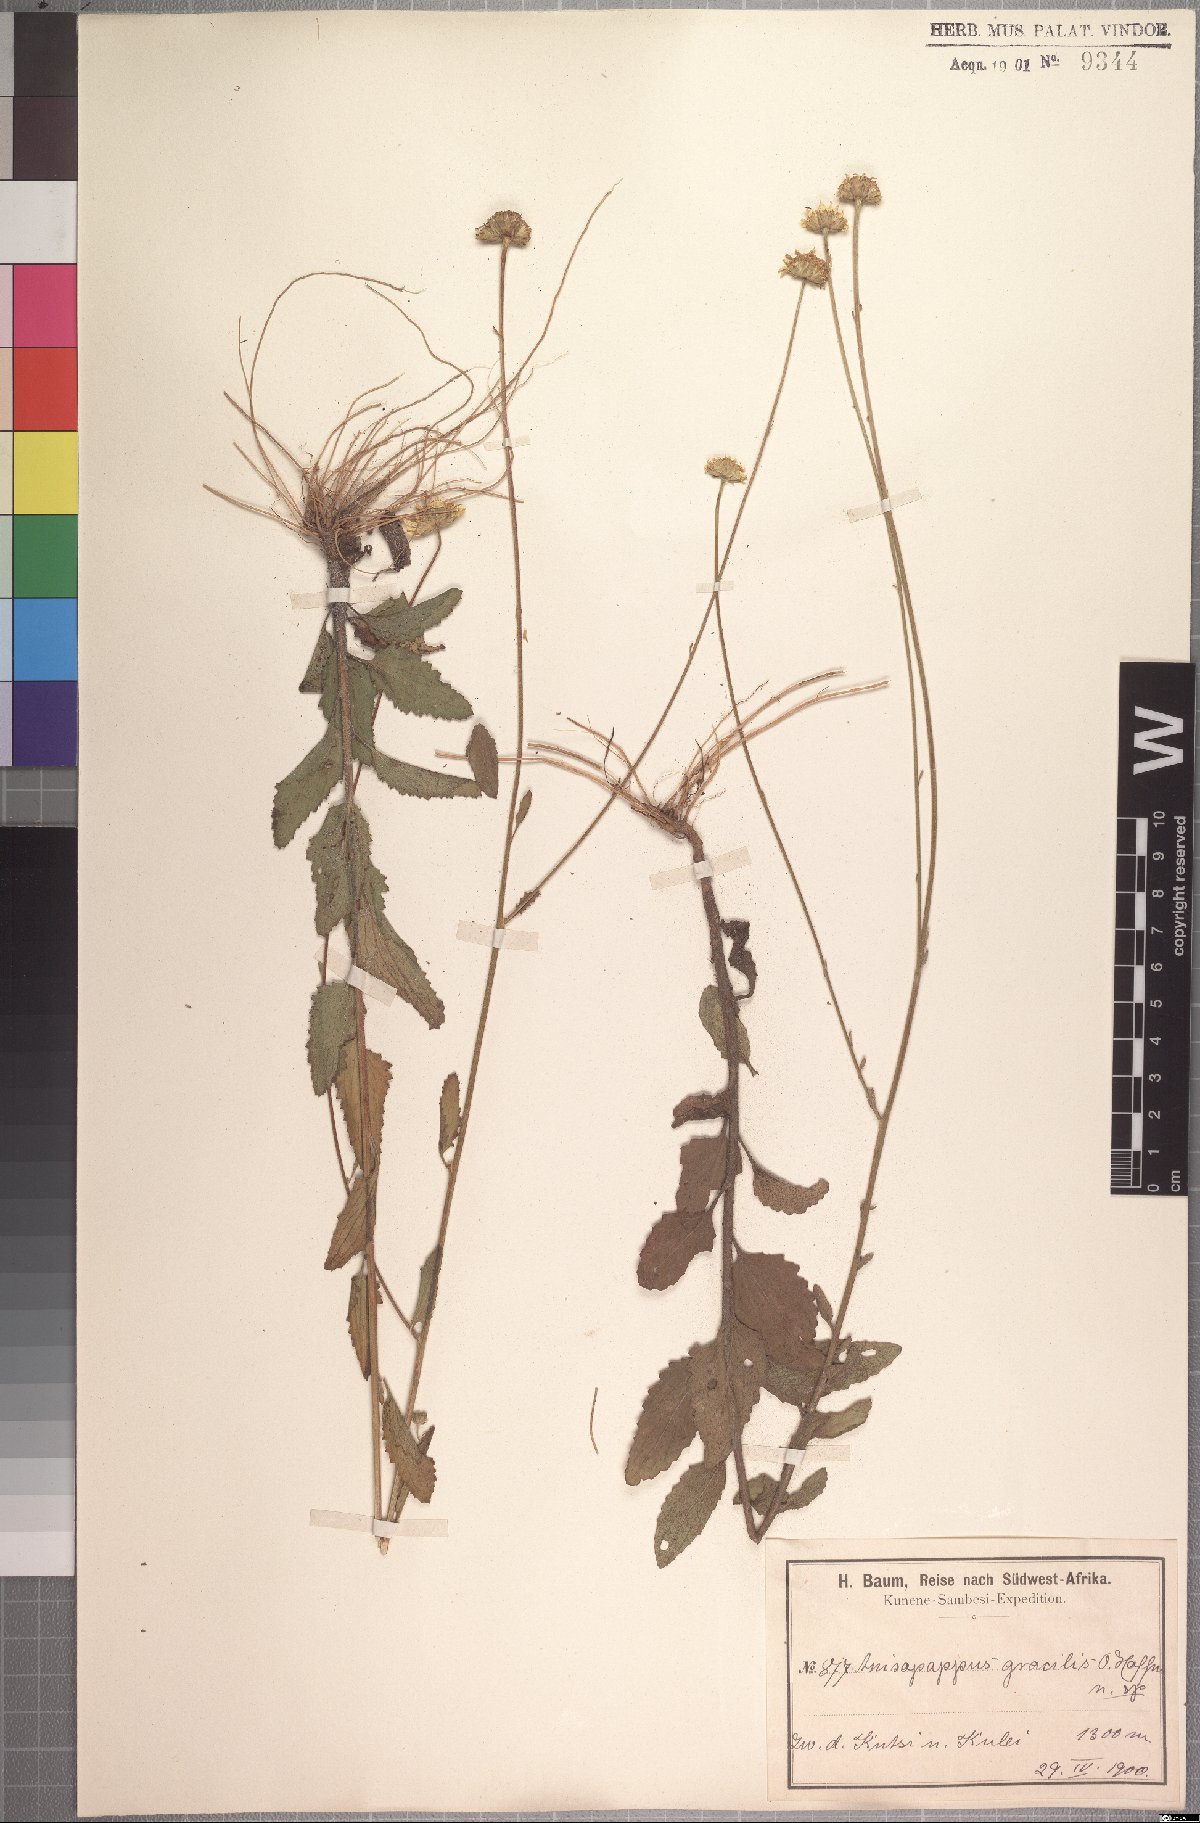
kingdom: Plantae
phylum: Tracheophyta
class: Magnoliopsida
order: Asterales
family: Asteraceae
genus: Anisopappus
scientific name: Anisopappus africanus
